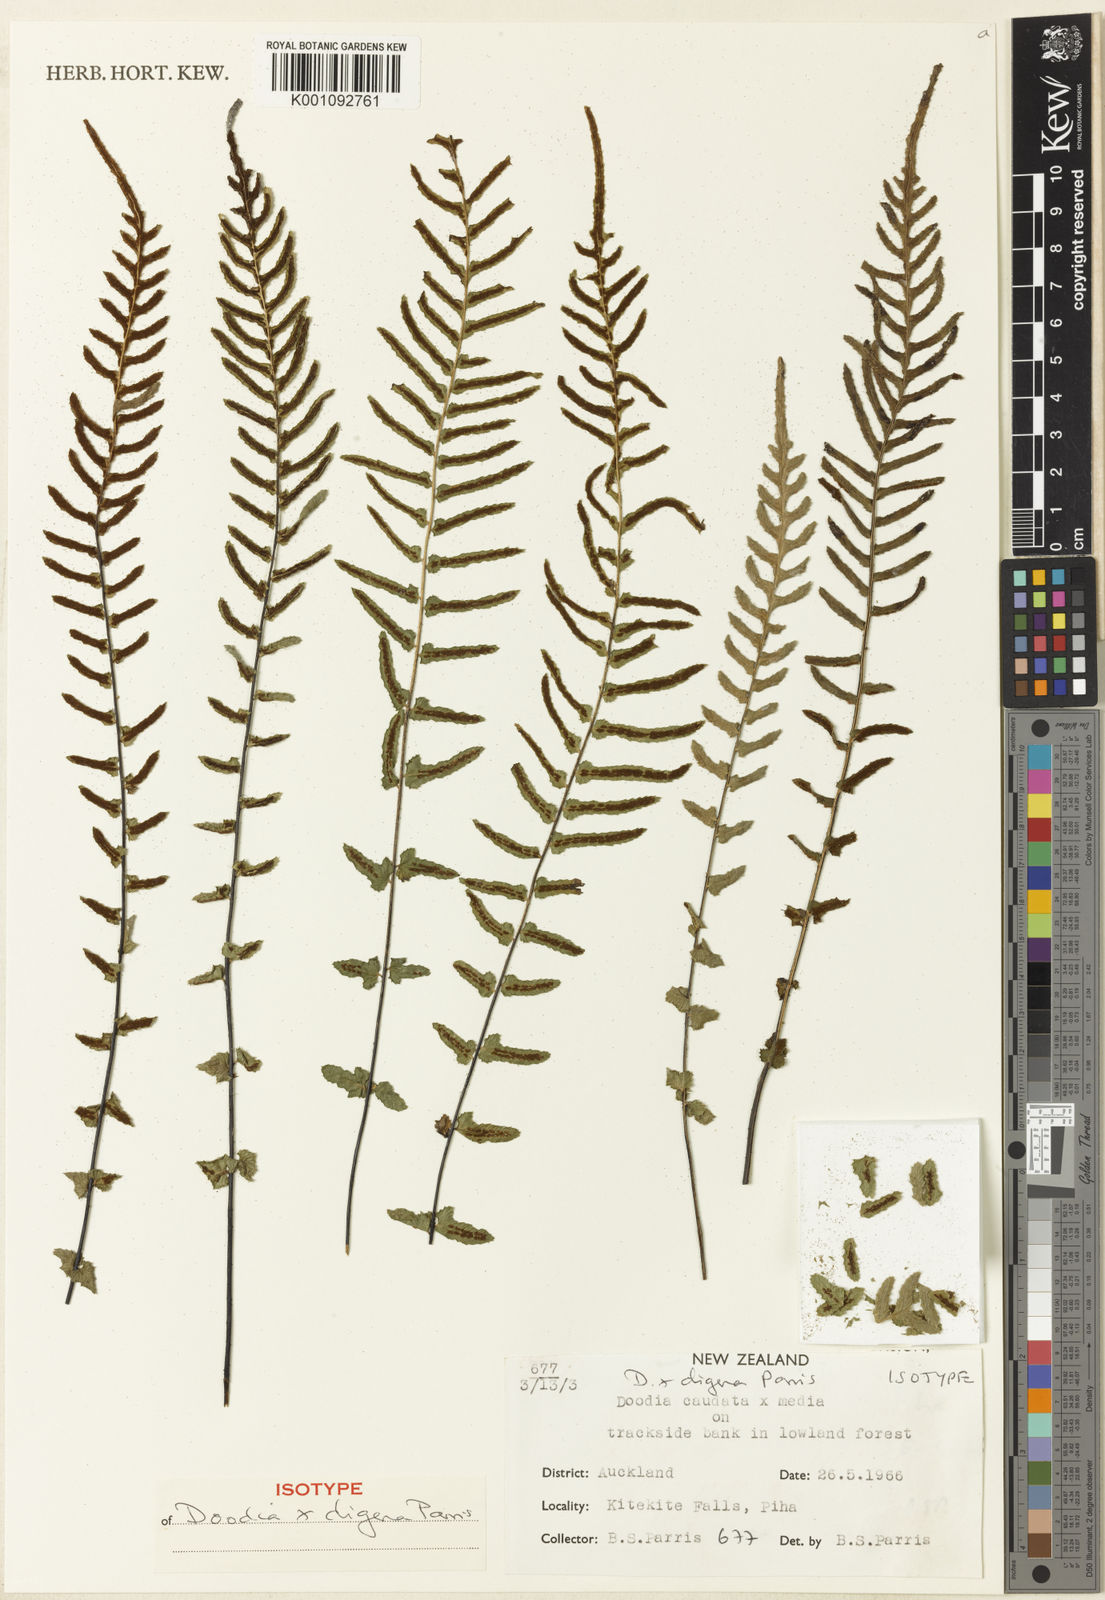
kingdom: Plantae
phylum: Tracheophyta
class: Polypodiopsida
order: Polypodiales
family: Blechnaceae
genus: Doodia
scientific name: Doodia digena
